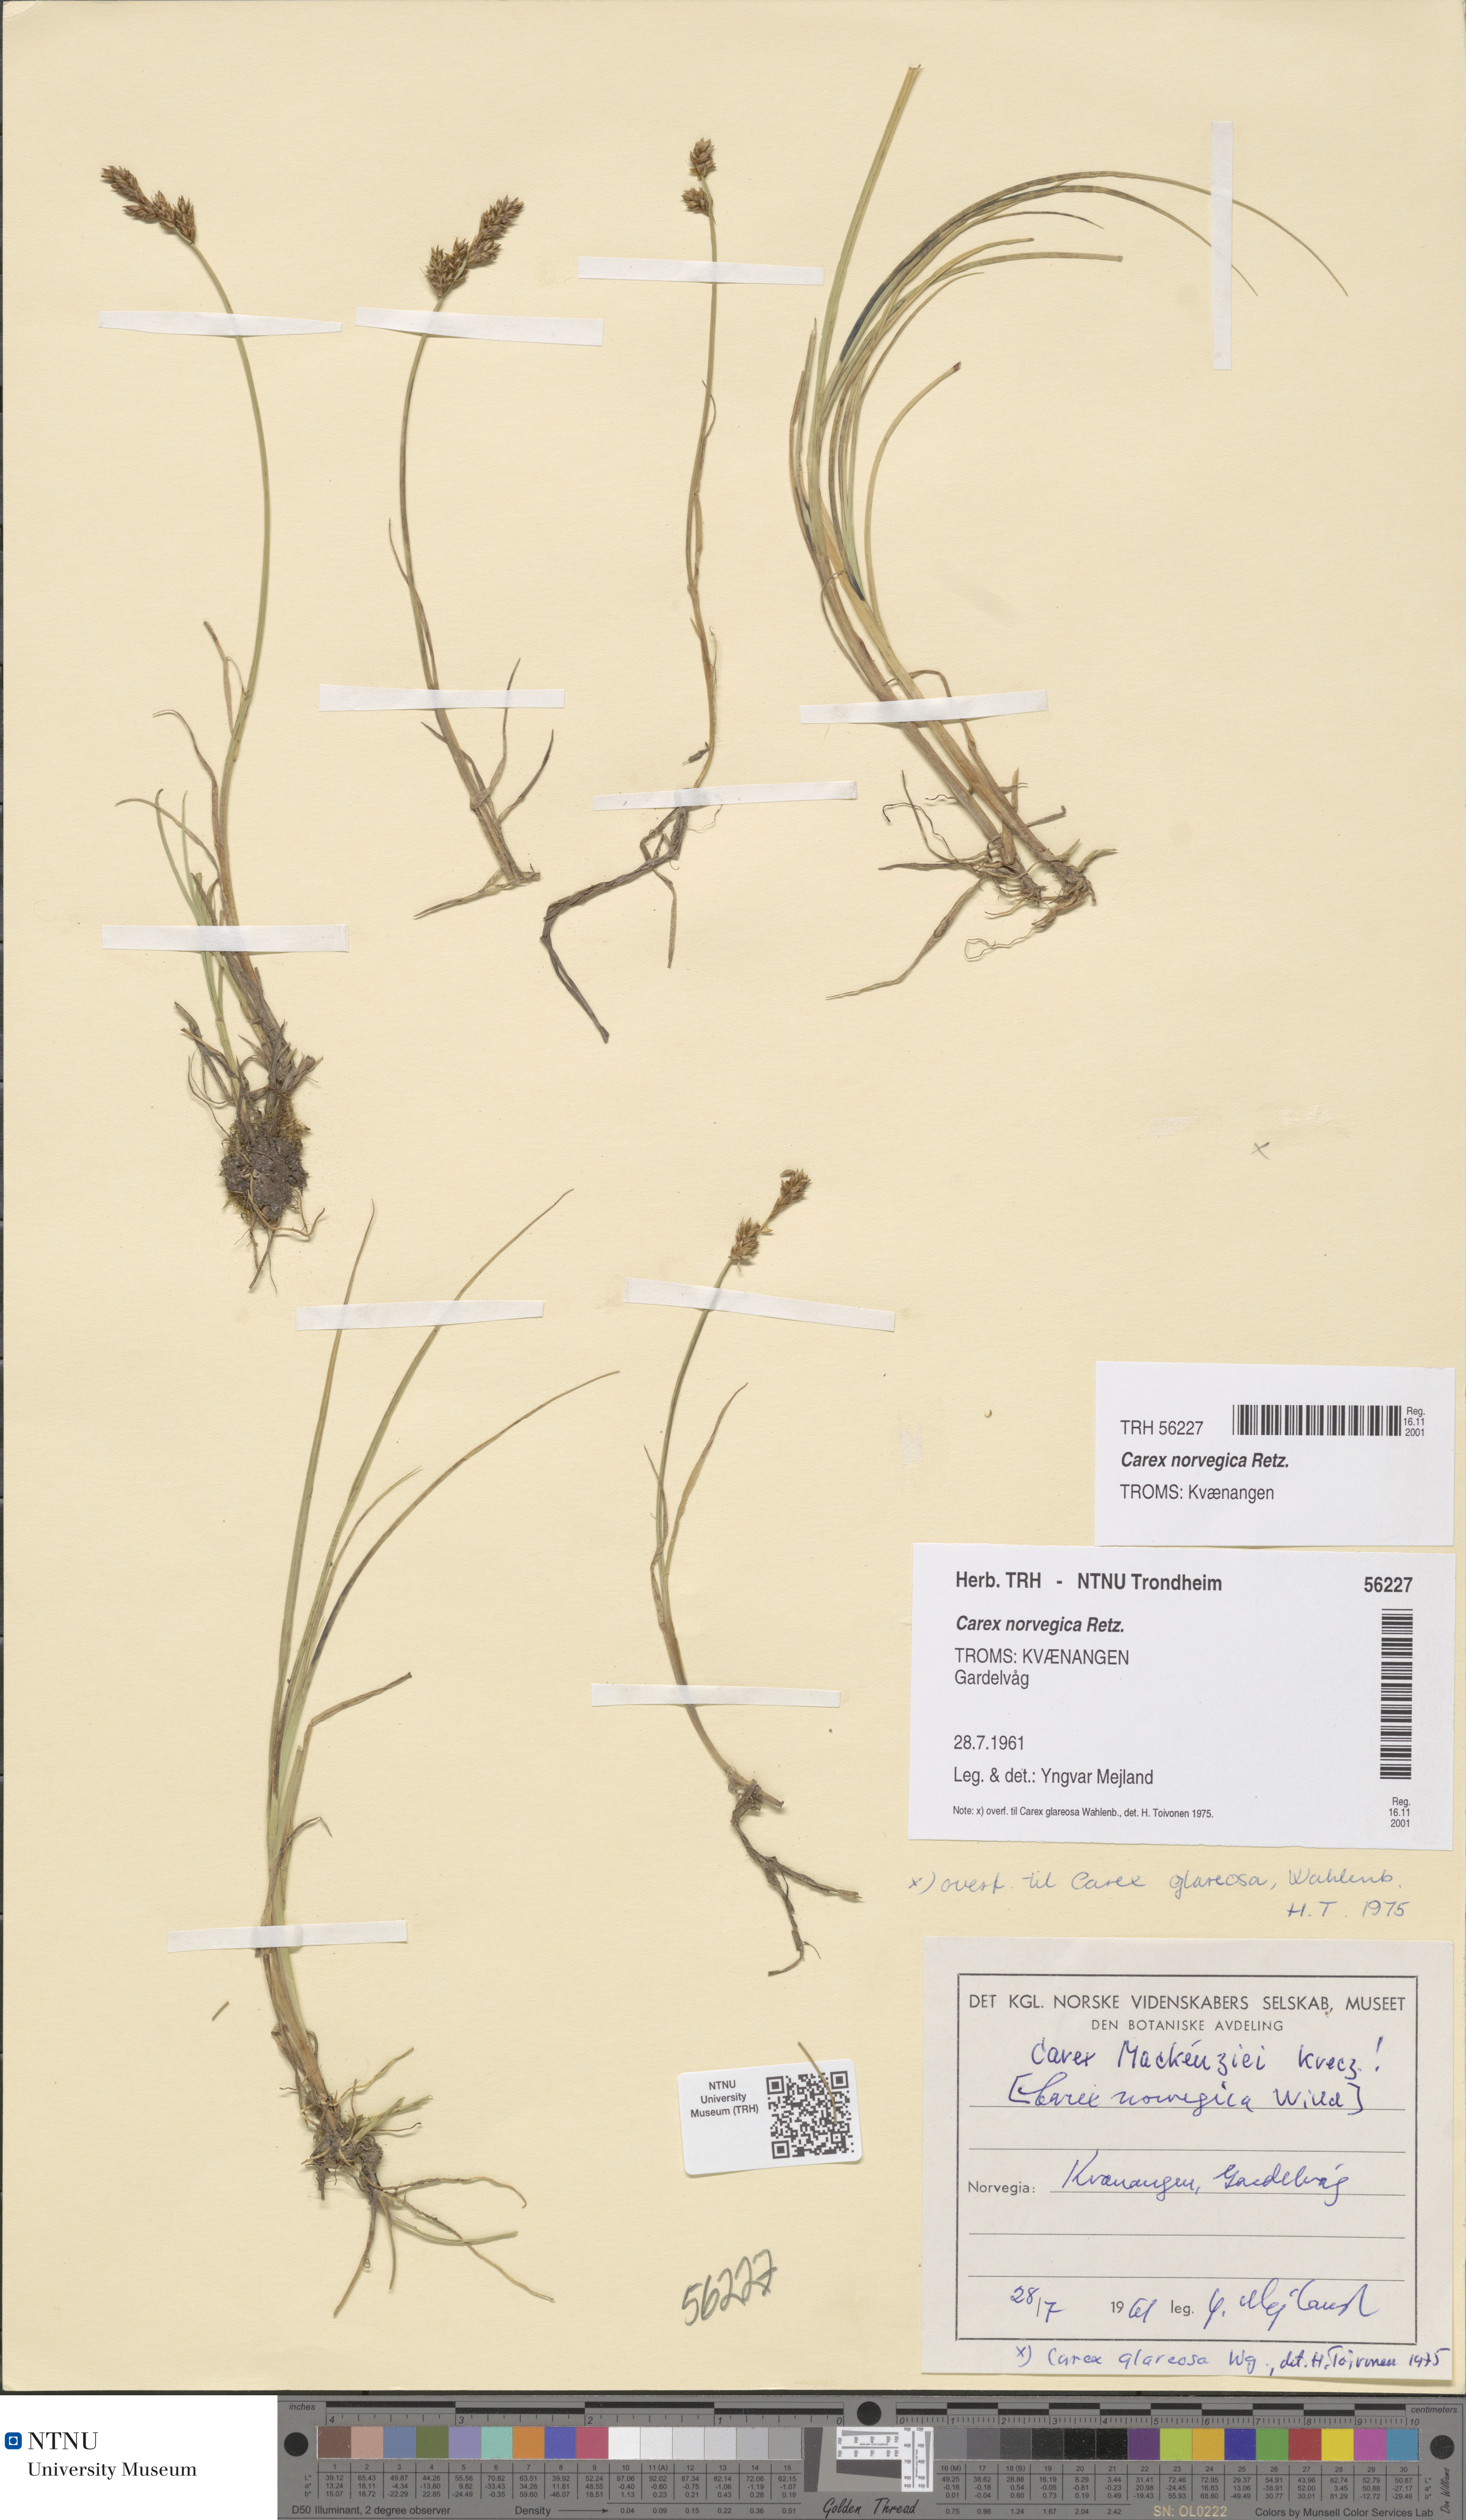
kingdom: Plantae
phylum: Tracheophyta
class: Liliopsida
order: Poales
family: Cyperaceae
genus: Carex
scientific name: Carex norvegica
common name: Close-headed alpine-sedge
